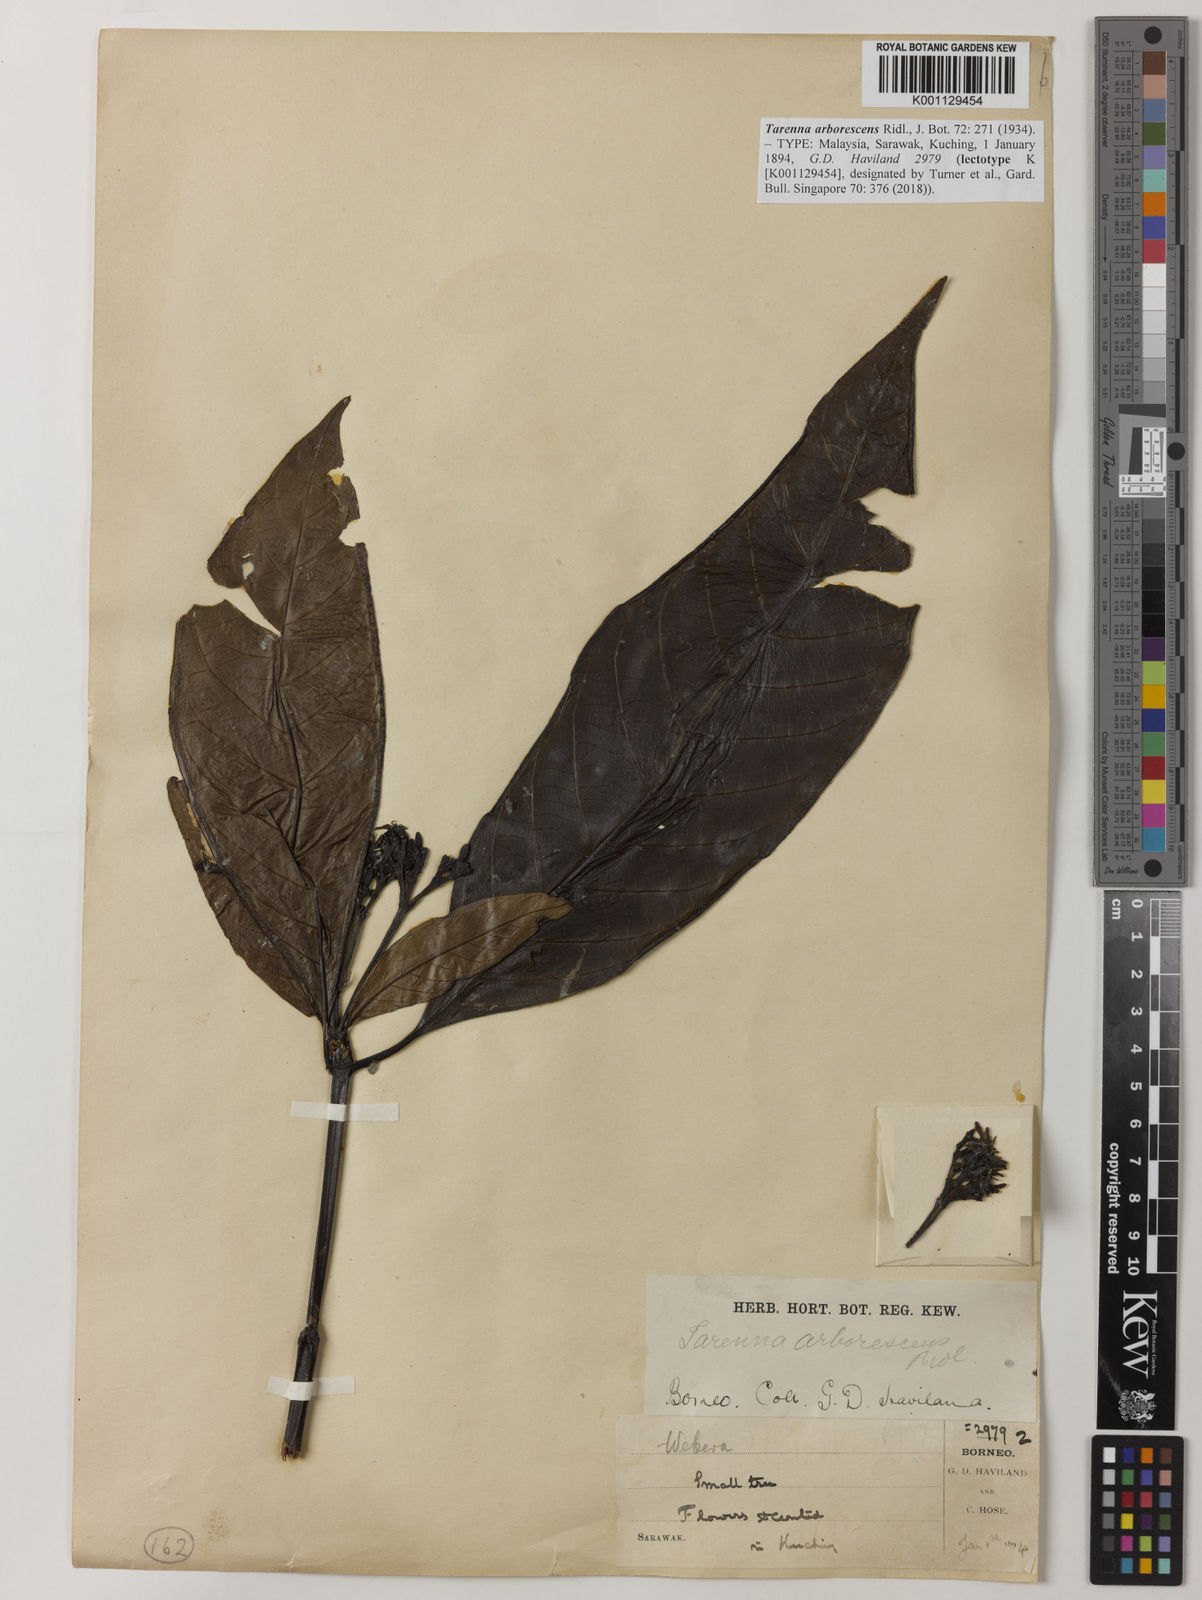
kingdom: Plantae
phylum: Tracheophyta
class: Magnoliopsida
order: Gentianales
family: Rubiaceae
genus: Tarenna
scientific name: Tarenna arborescens
